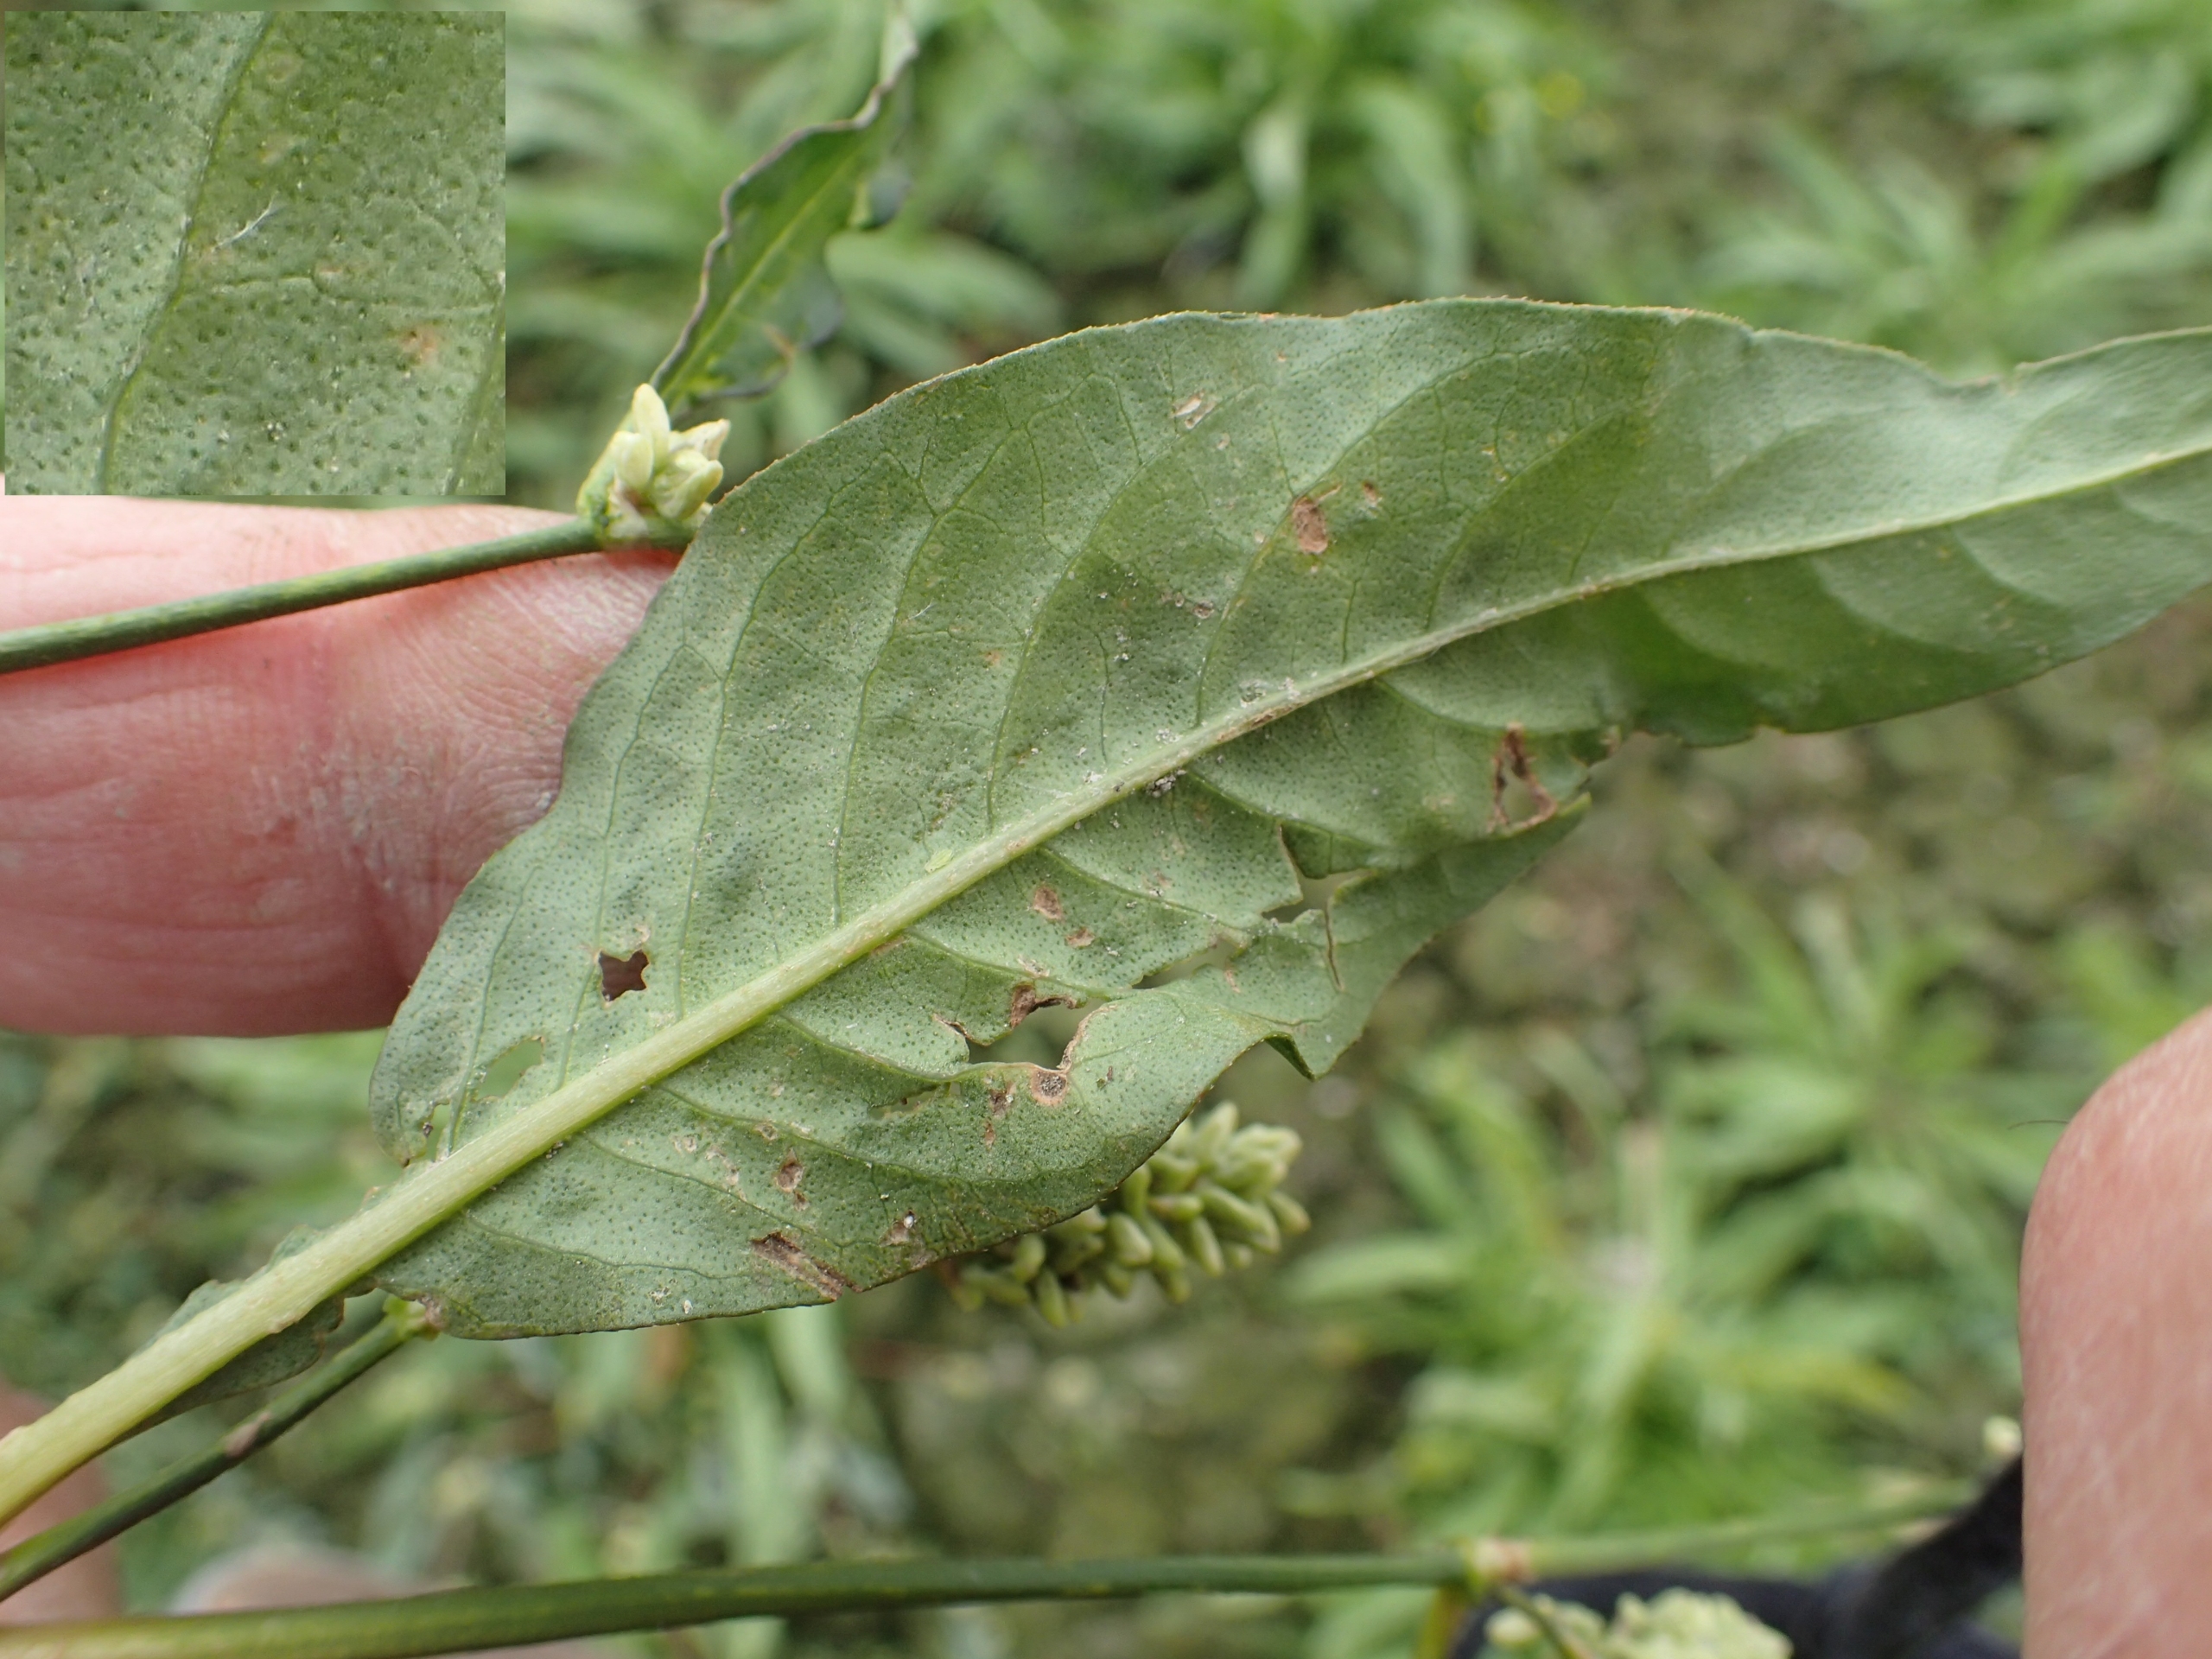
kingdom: Plantae
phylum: Tracheophyta
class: Magnoliopsida
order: Caryophyllales
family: Polygonaceae
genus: Persicaria
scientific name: Persicaria lapathifolia
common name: Knudet pileurt
